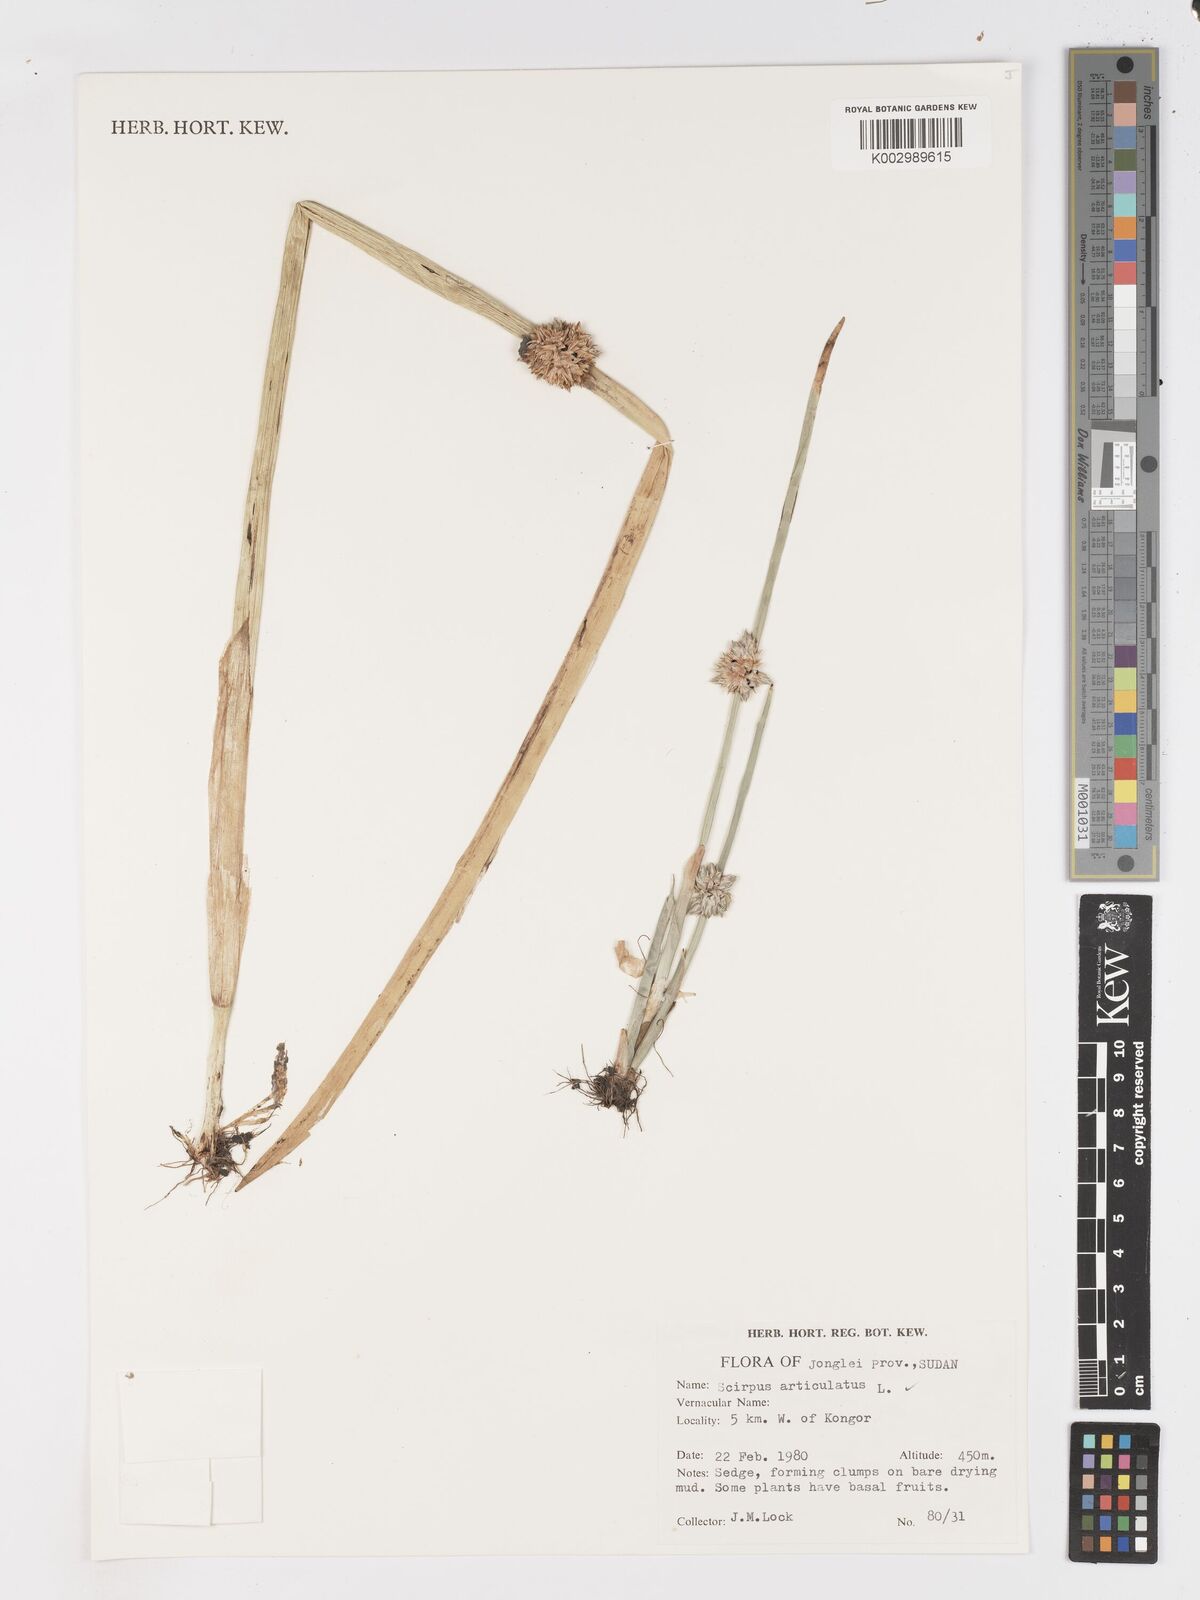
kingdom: Plantae
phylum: Tracheophyta
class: Liliopsida
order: Poales
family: Cyperaceae
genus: Schoenoplectiella
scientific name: Schoenoplectiella articulata
